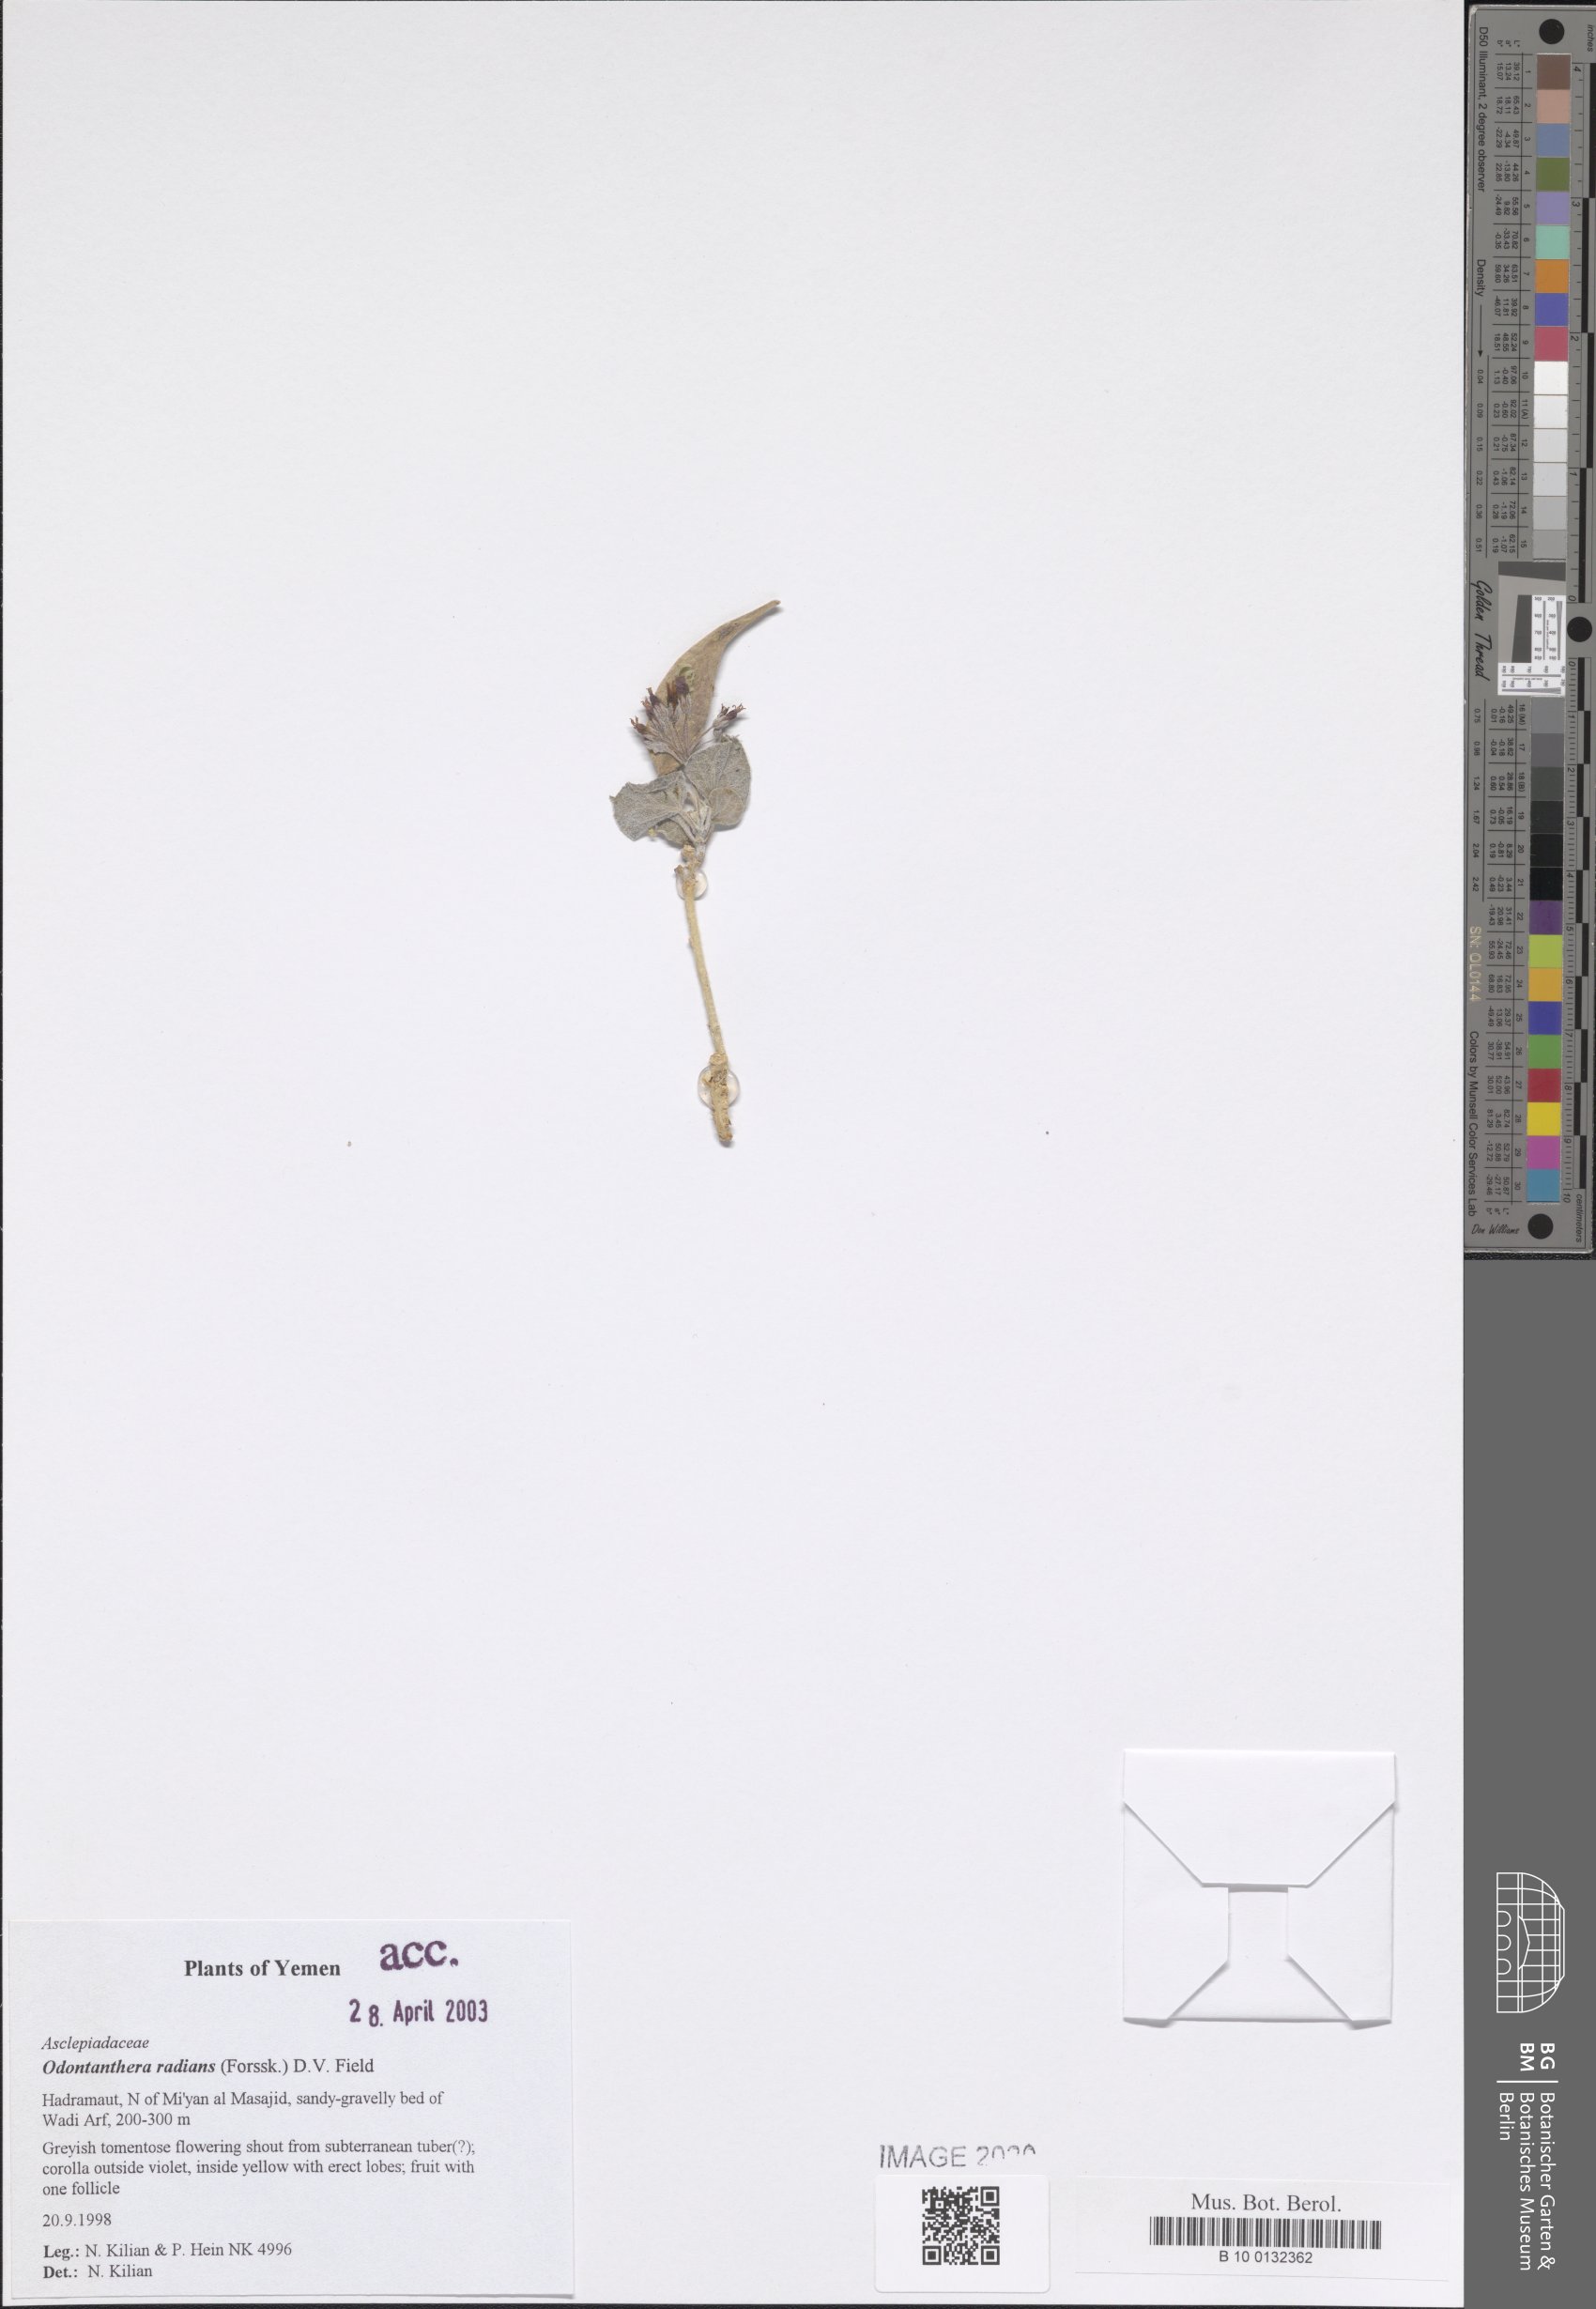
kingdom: Plantae
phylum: Tracheophyta
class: Magnoliopsida
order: Gentianales
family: Apocynaceae
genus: Cynanchum
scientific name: Cynanchum radians
